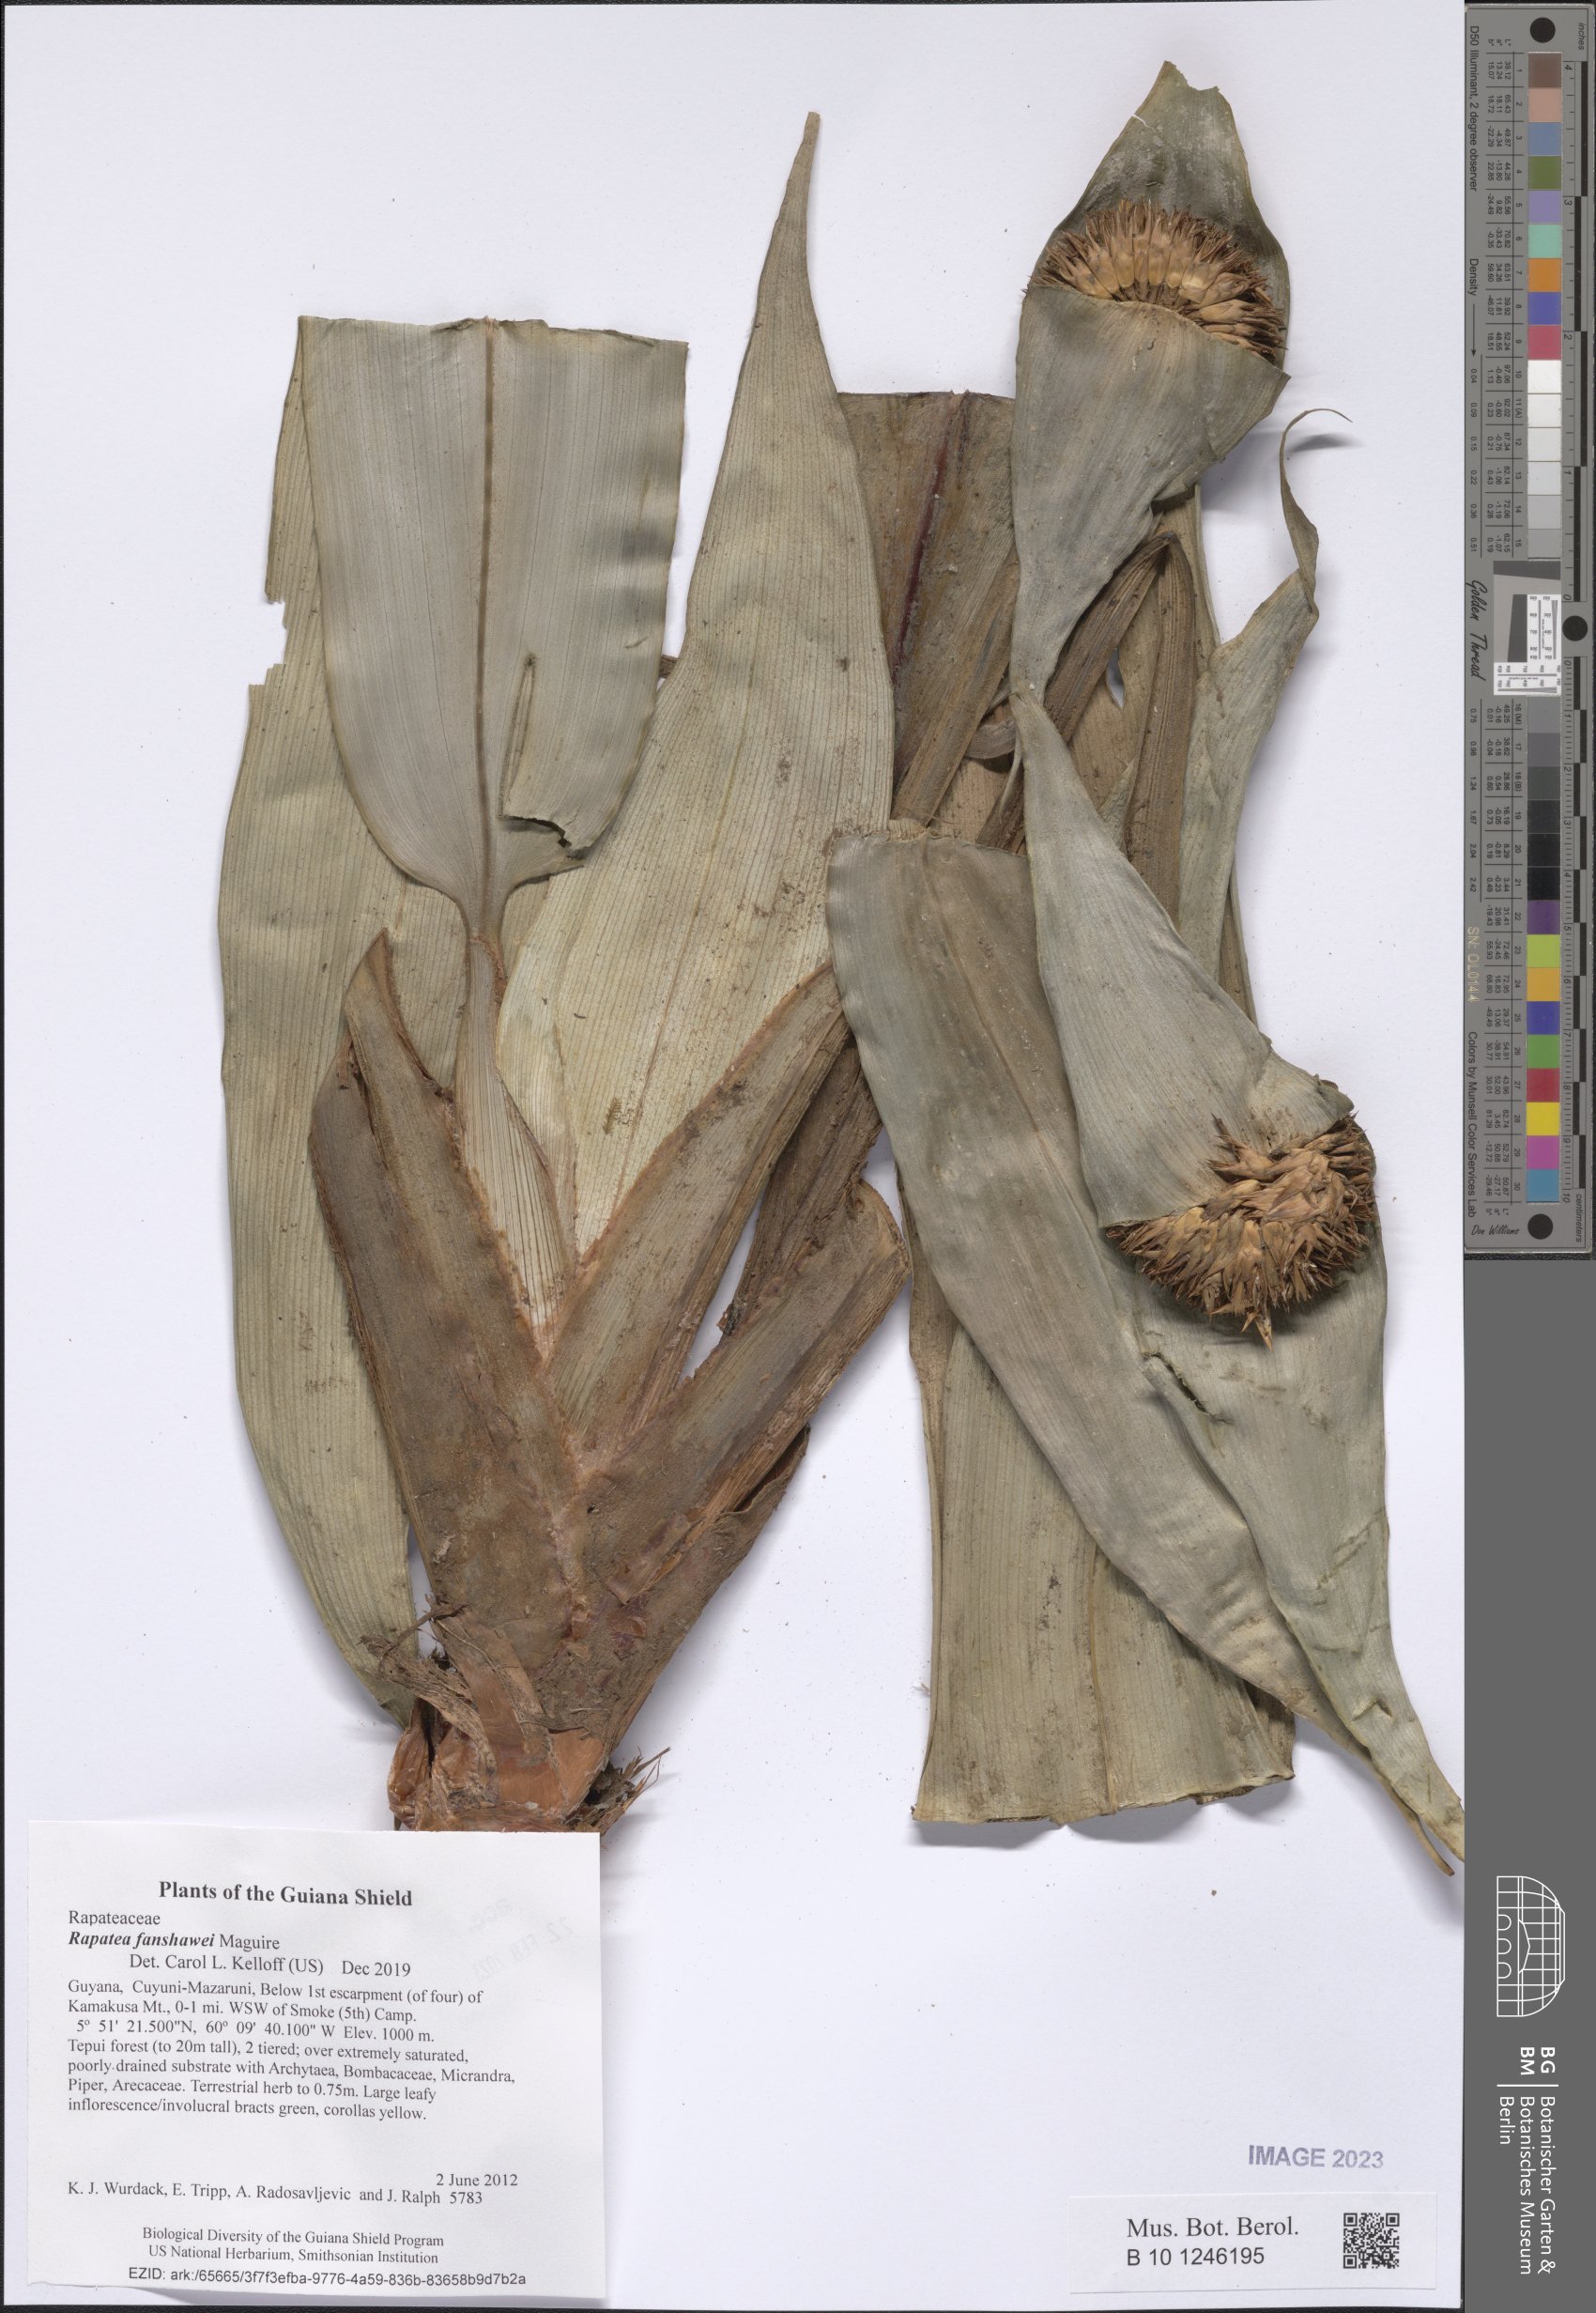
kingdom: Plantae
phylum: Tracheophyta
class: Liliopsida
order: Poales
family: Rapateaceae
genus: Rapatea
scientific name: Rapatea fanshawei
